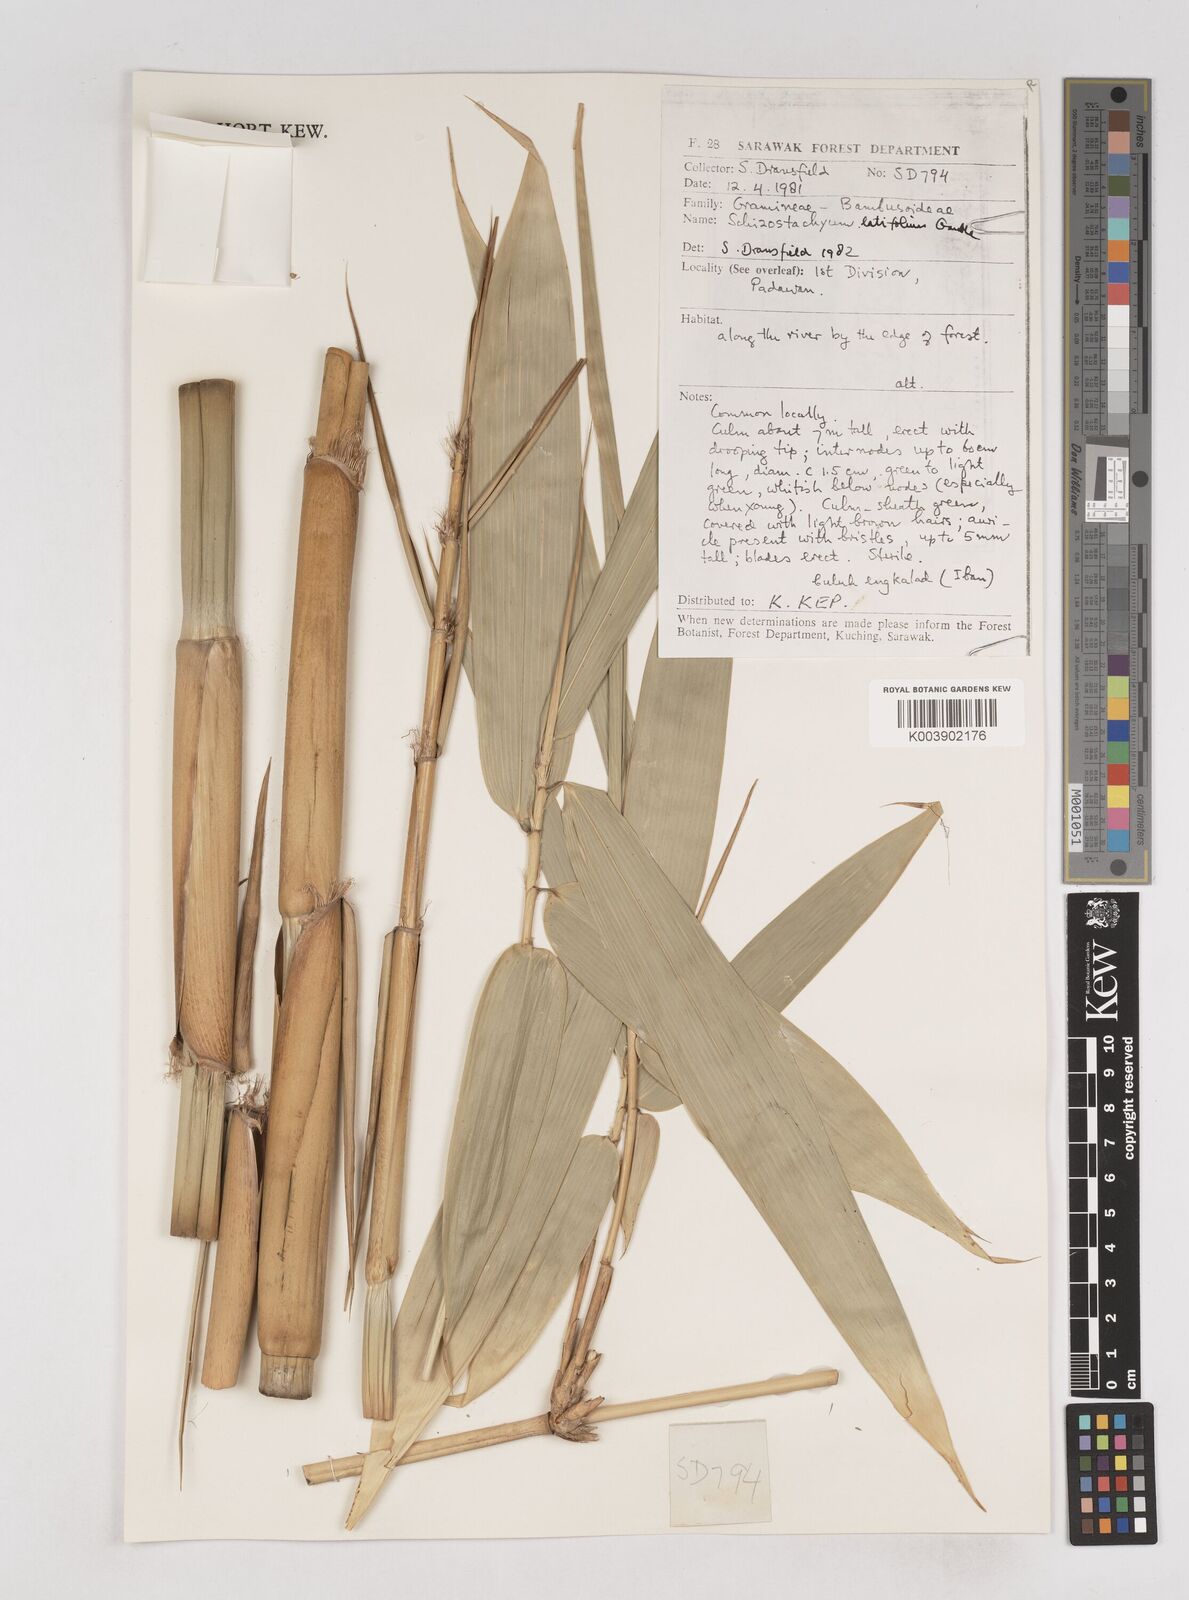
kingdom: Plantae
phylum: Tracheophyta
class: Liliopsida
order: Poales
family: Poaceae
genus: Schizostachyum
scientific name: Schizostachyum latifolium
